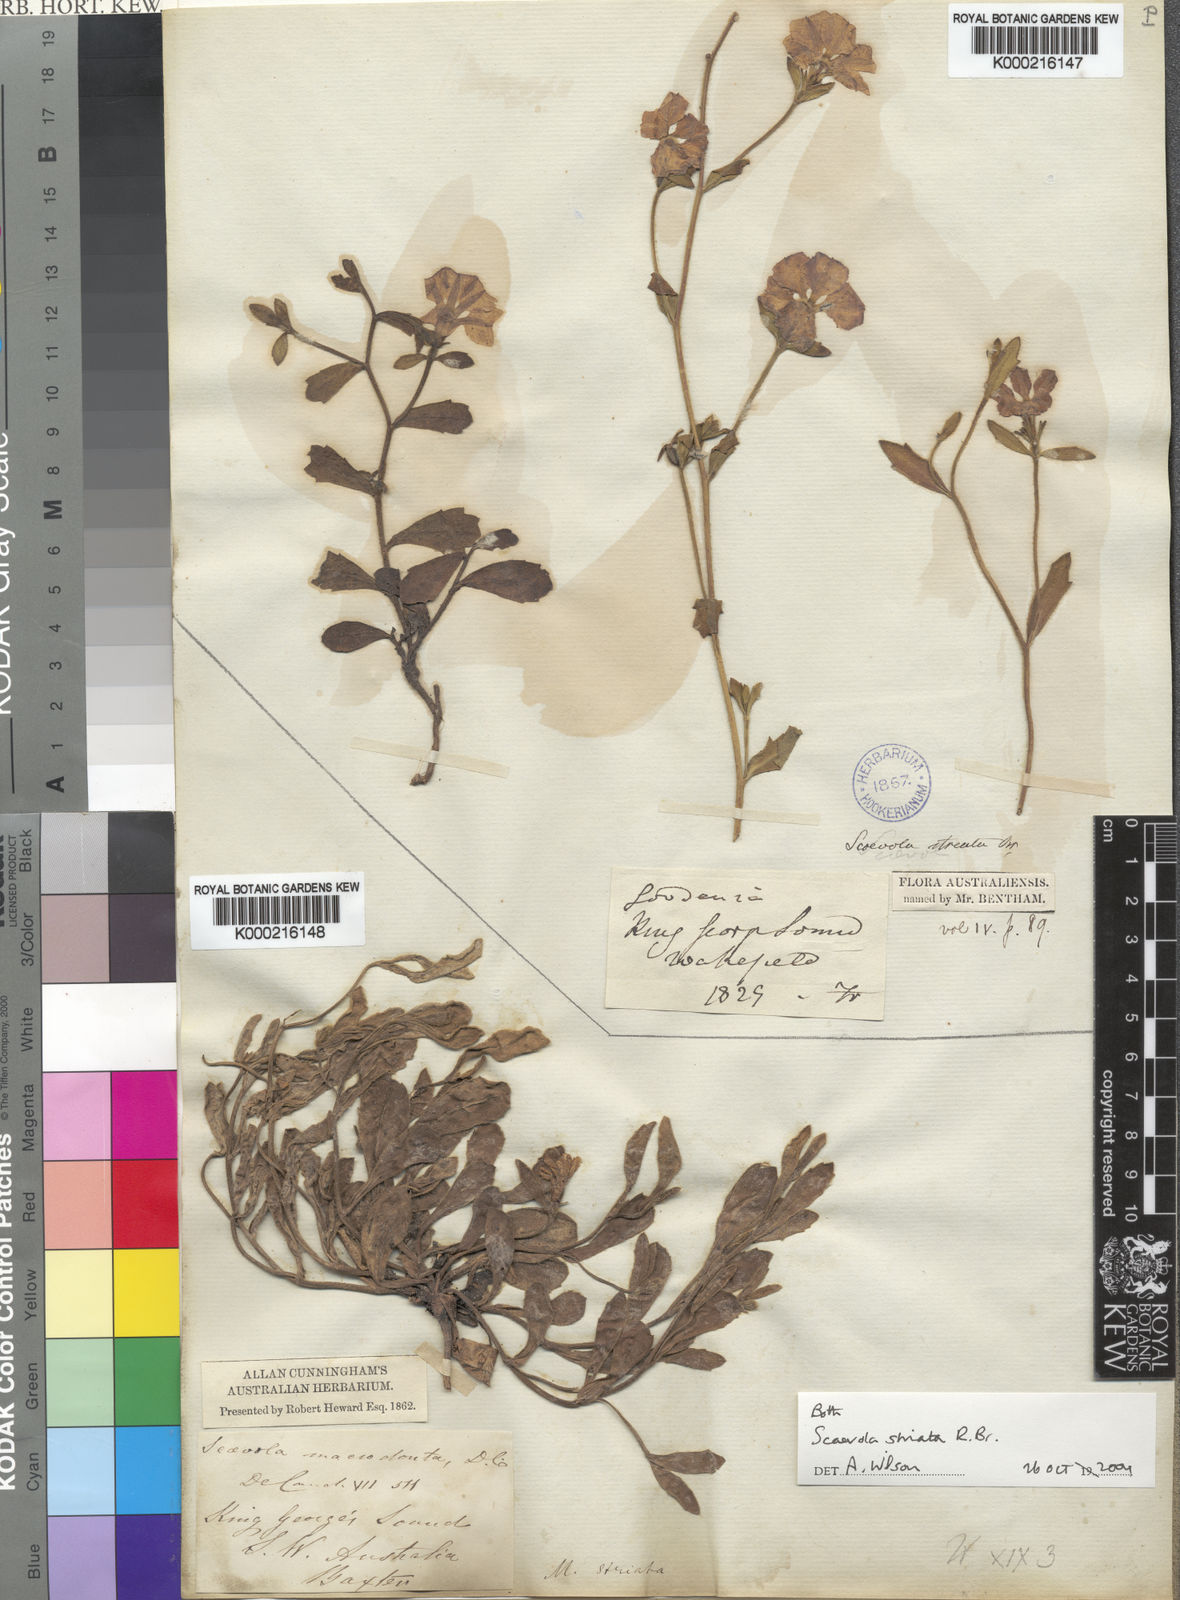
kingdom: Plantae
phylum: Tracheophyta
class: Magnoliopsida
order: Asterales
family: Goodeniaceae
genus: Scaevola
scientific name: Scaevola striata
